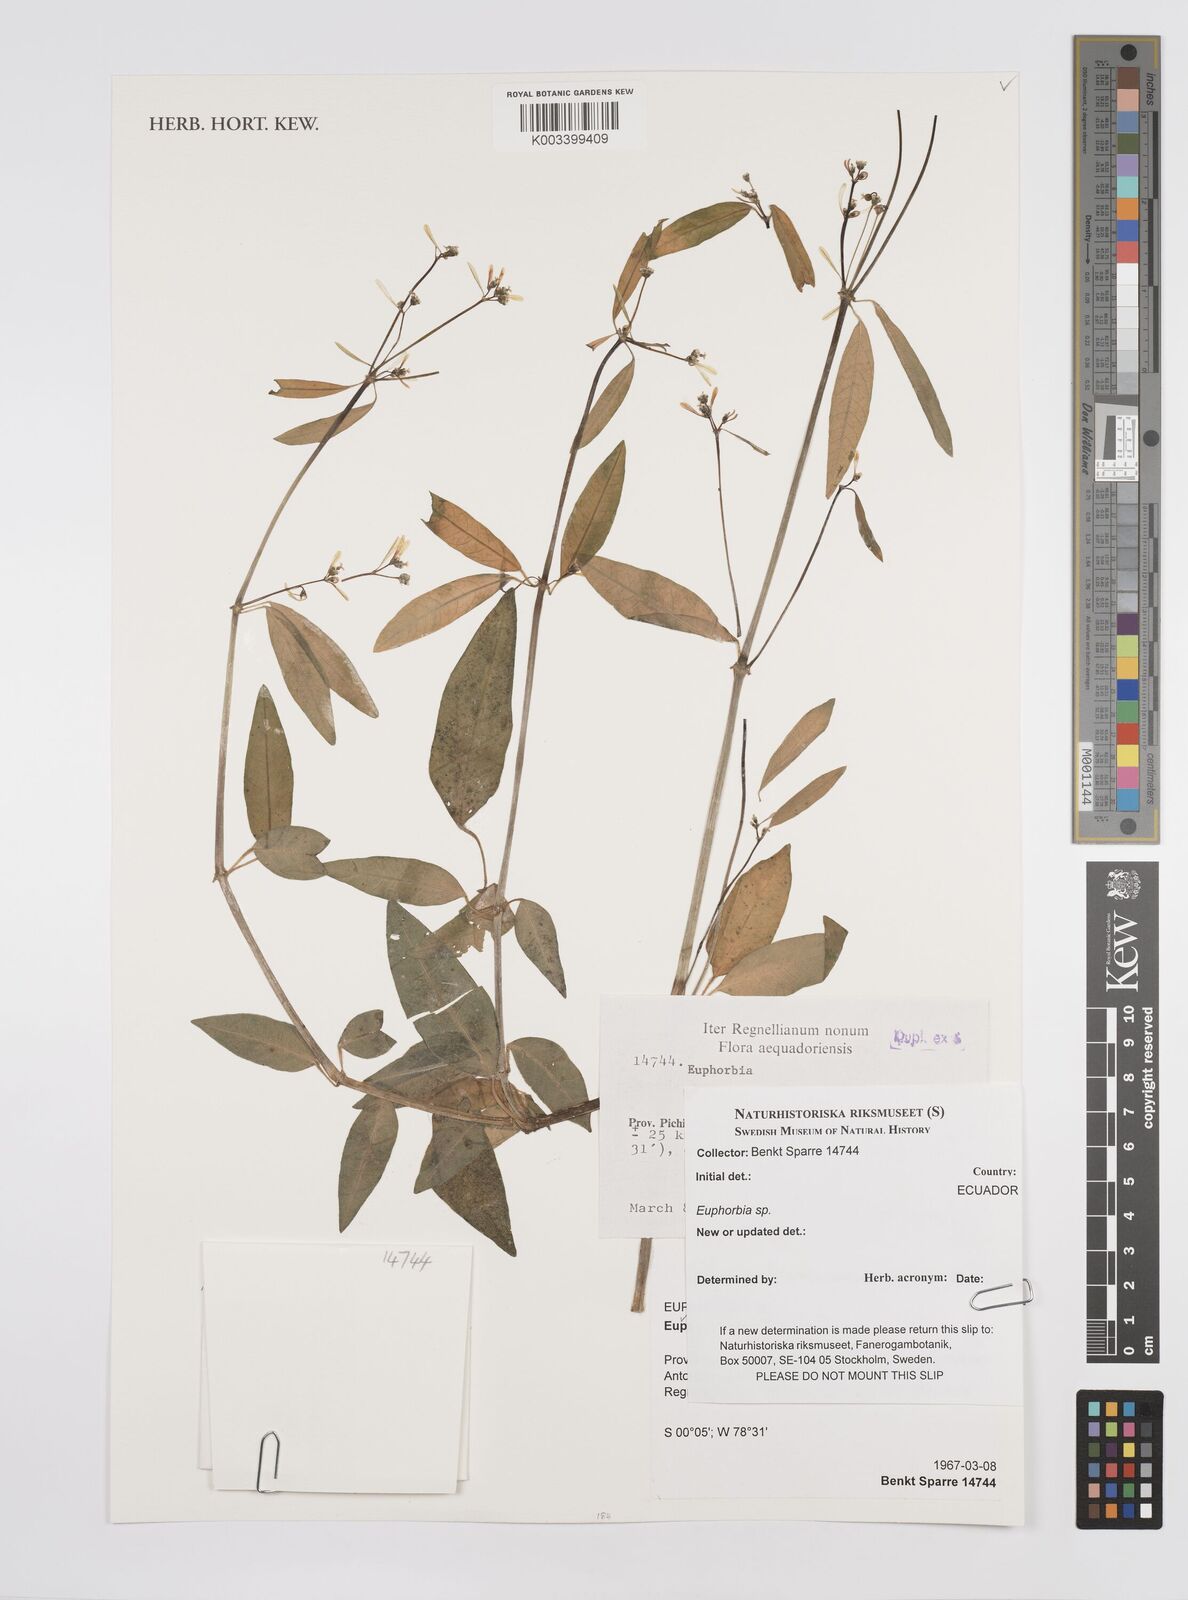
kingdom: Plantae
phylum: Tracheophyta
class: Magnoliopsida
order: Malpighiales
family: Euphorbiaceae
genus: Euphorbia
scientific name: Euphorbia
